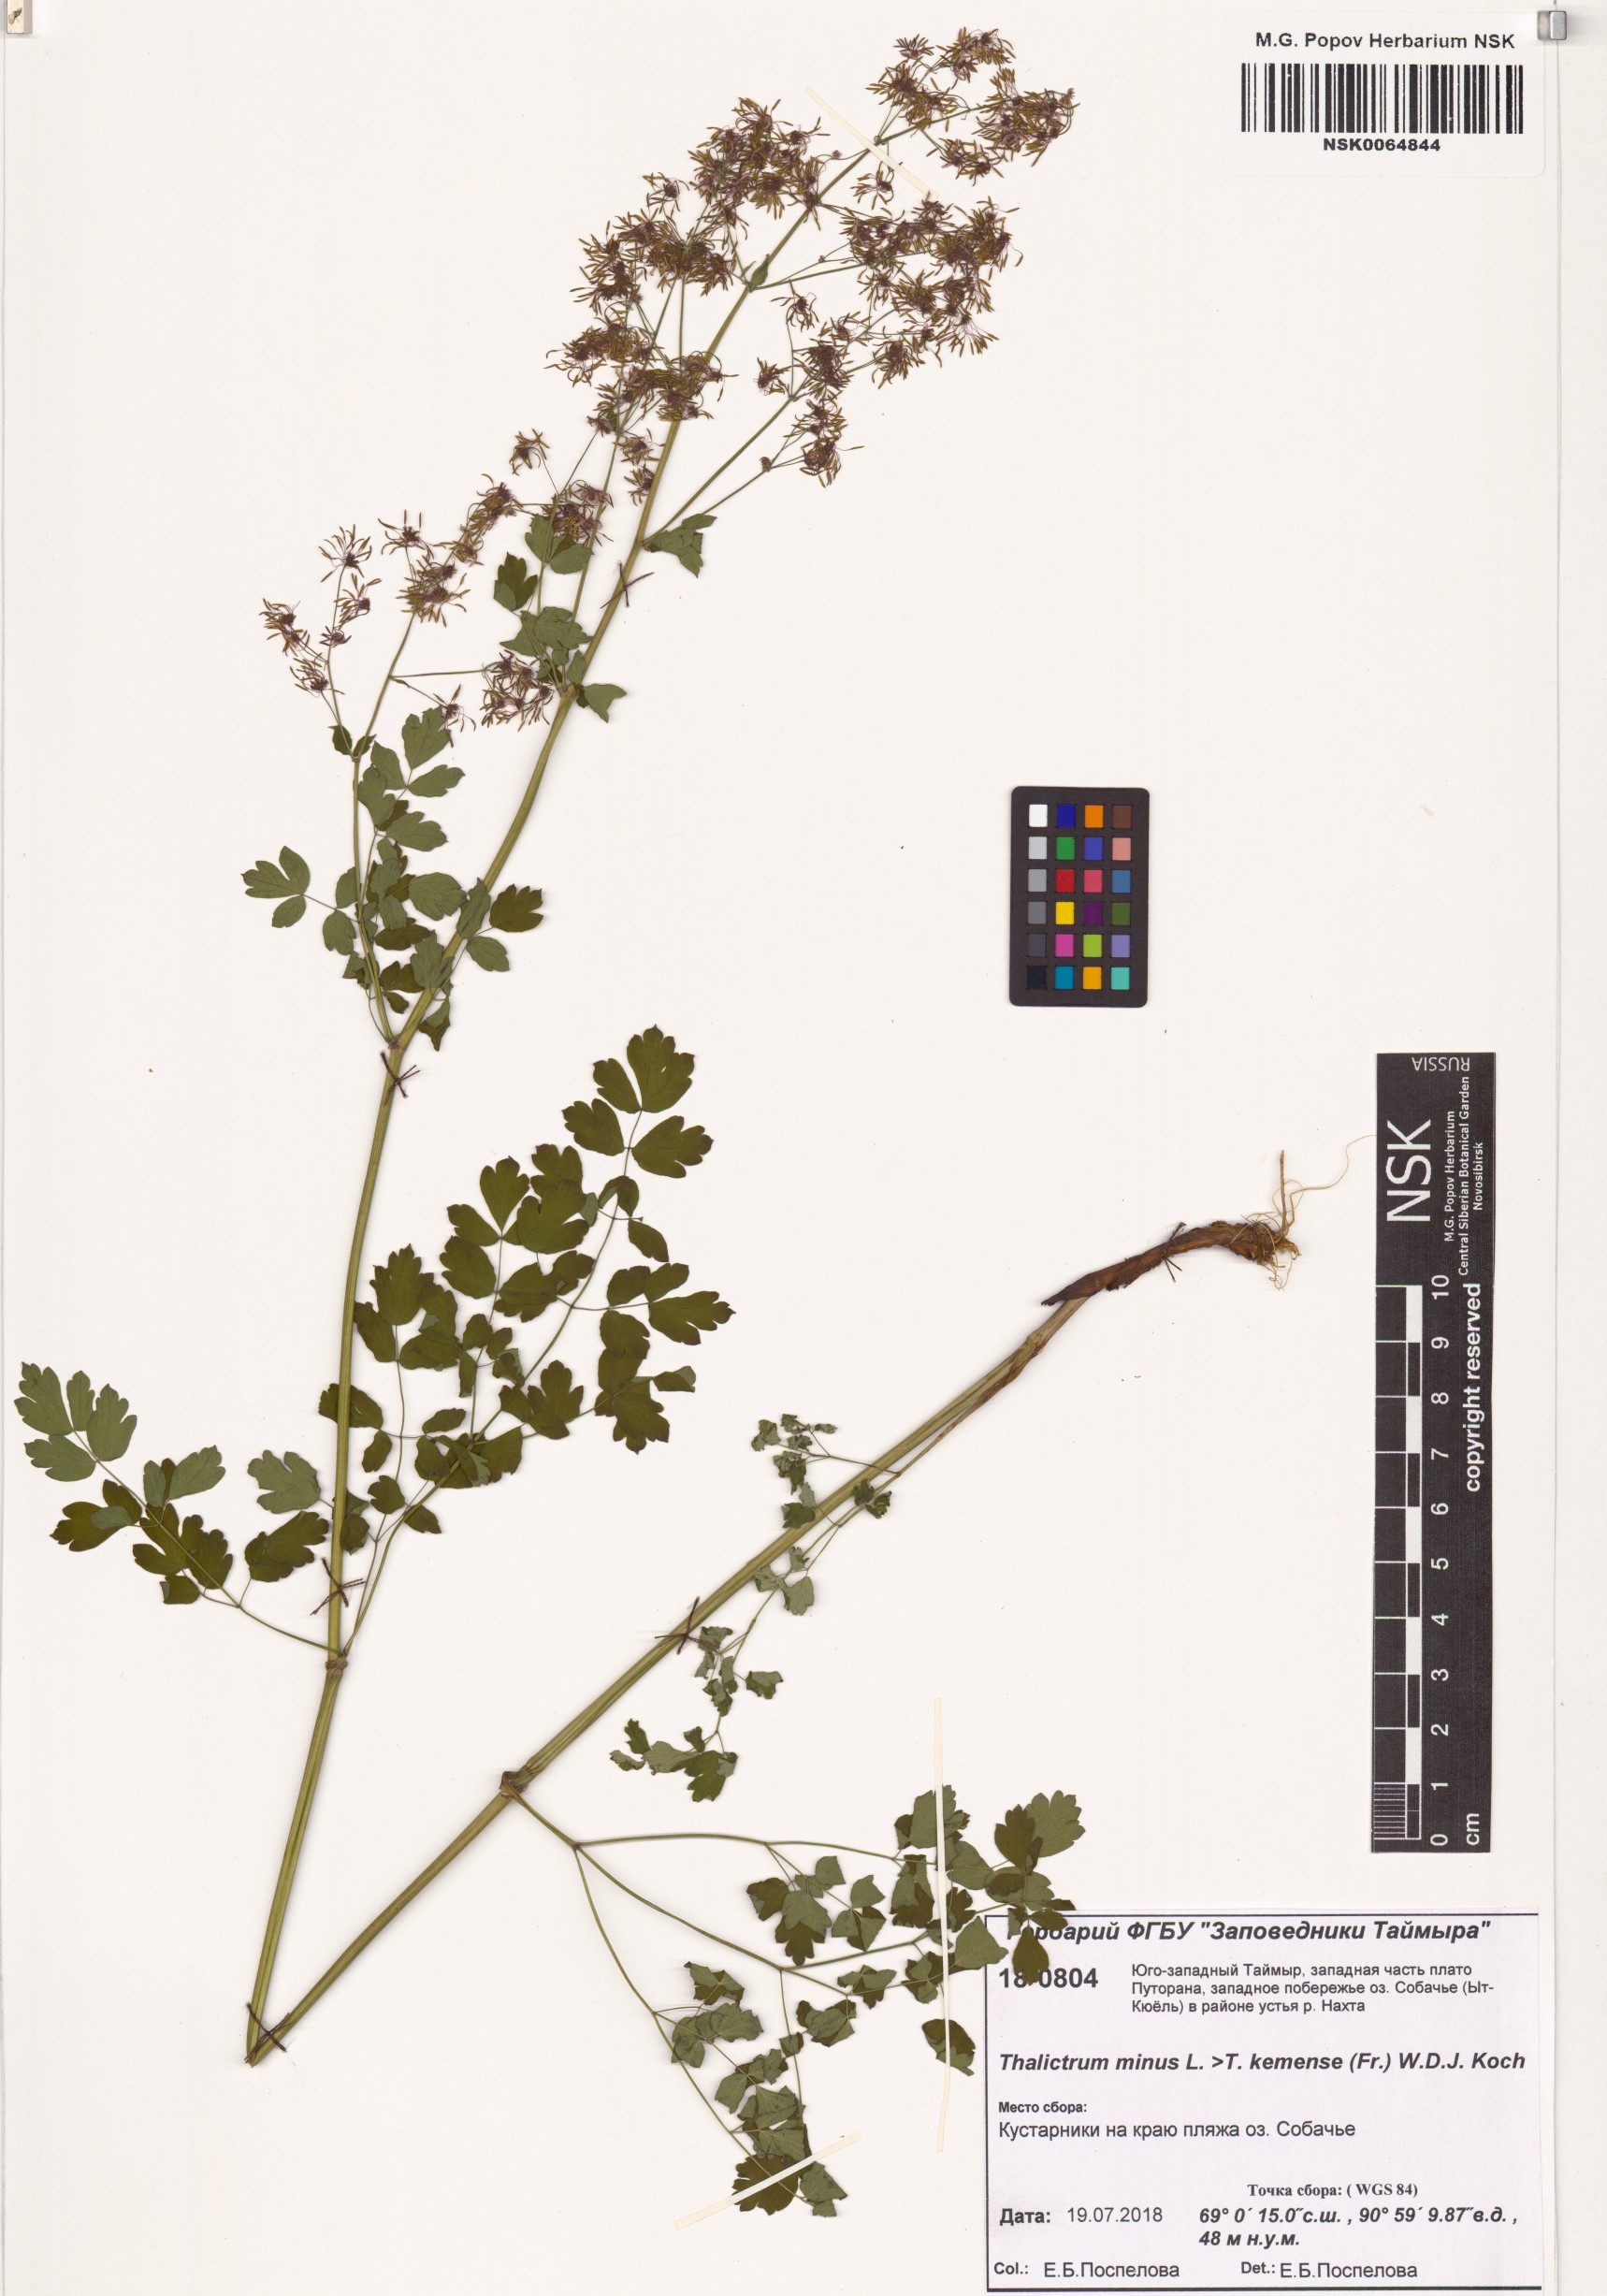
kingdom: Plantae
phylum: Tracheophyta
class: Magnoliopsida
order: Ranunculales
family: Ranunculaceae
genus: Thalictrum
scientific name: Thalictrum minus
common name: Lesser meadow-rue
